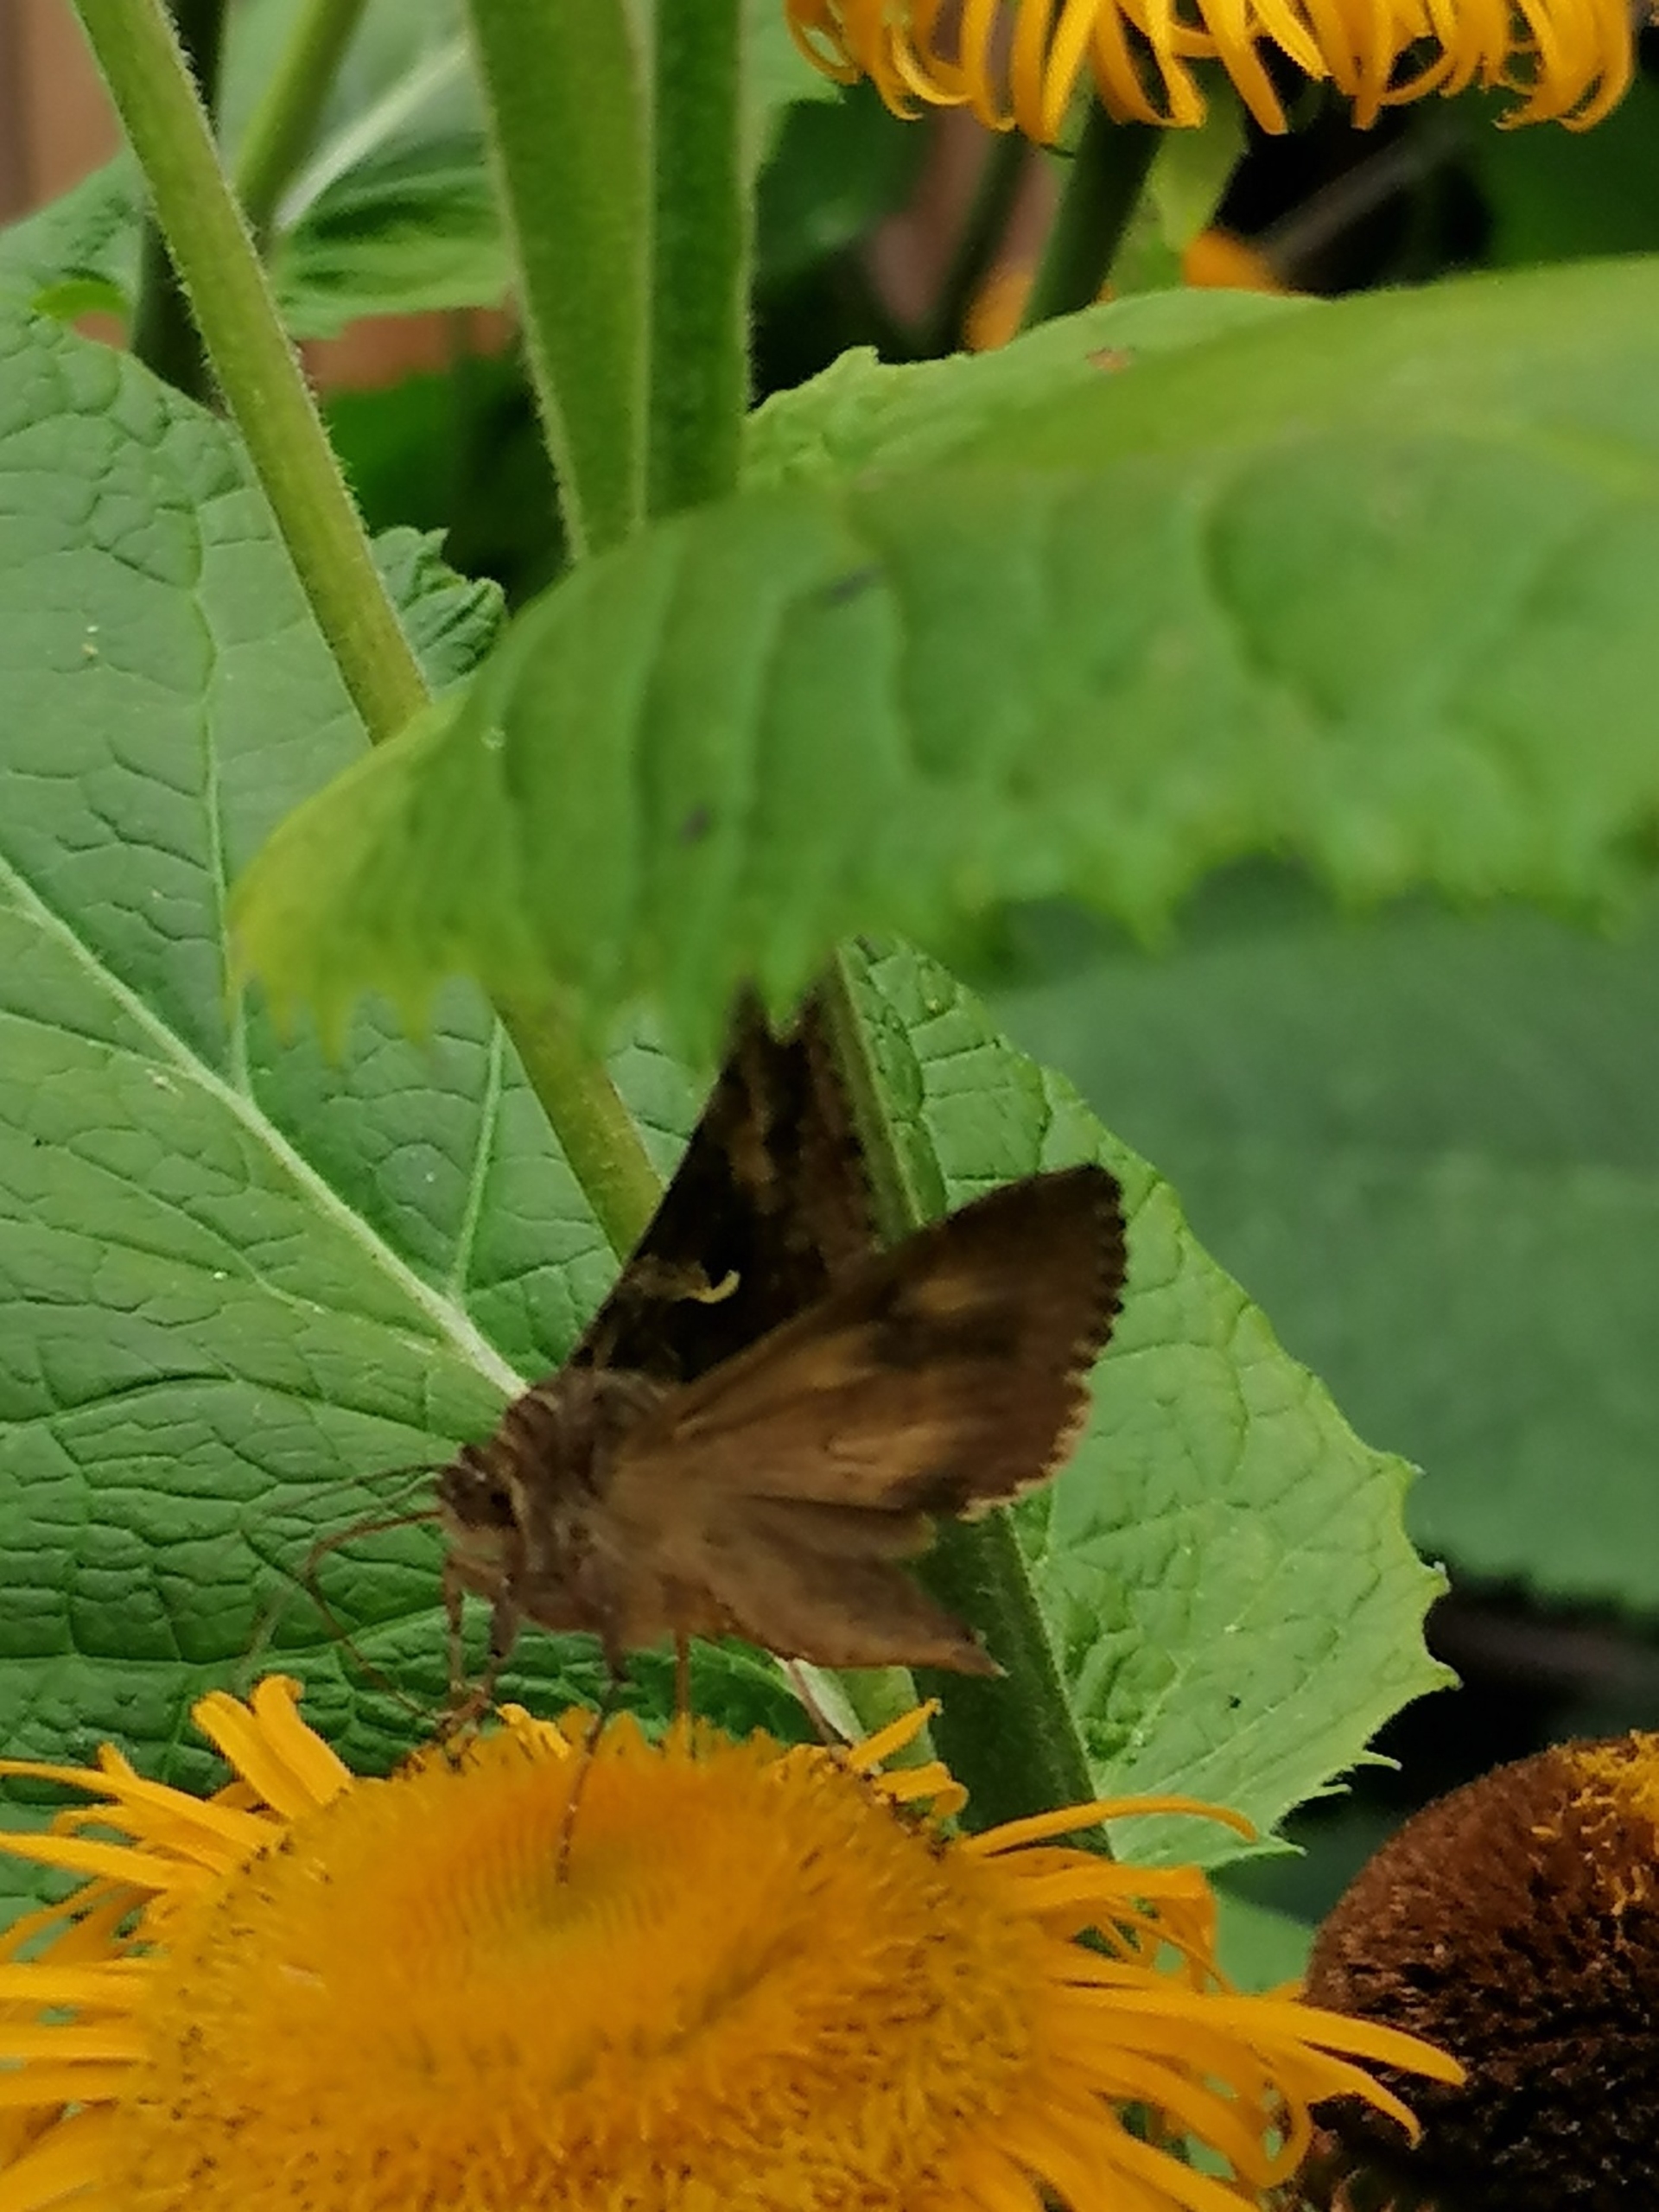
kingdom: Animalia
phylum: Arthropoda
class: Insecta
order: Lepidoptera
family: Noctuidae
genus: Autographa
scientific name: Autographa gamma
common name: Gammaugle
